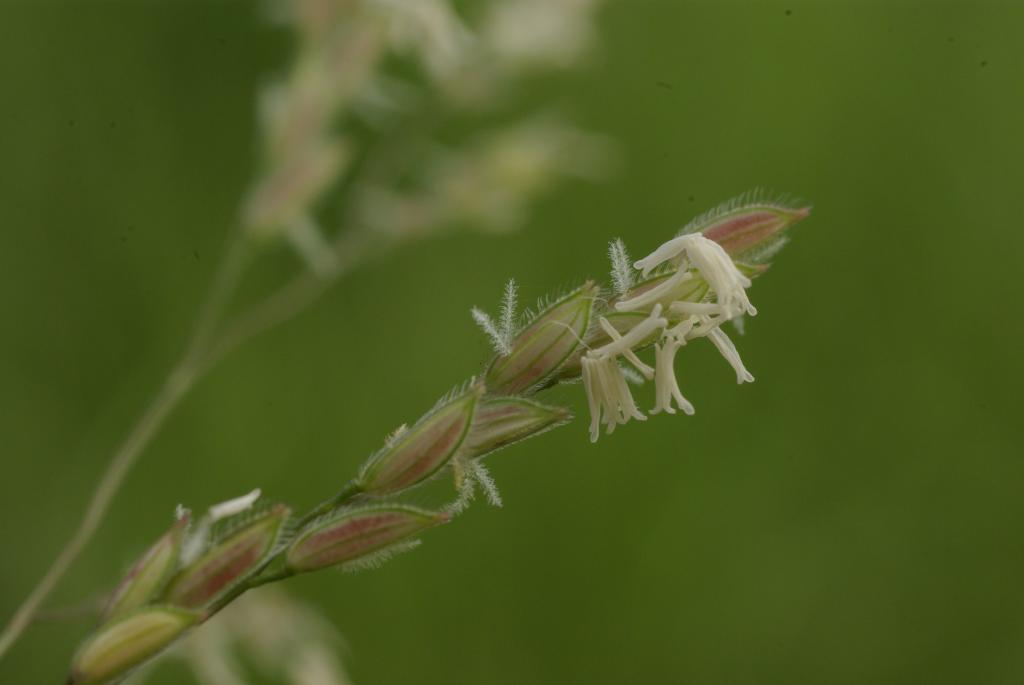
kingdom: Plantae
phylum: Tracheophyta
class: Liliopsida
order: Poales
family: Poaceae
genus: Leersia
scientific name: Leersia hexandra
